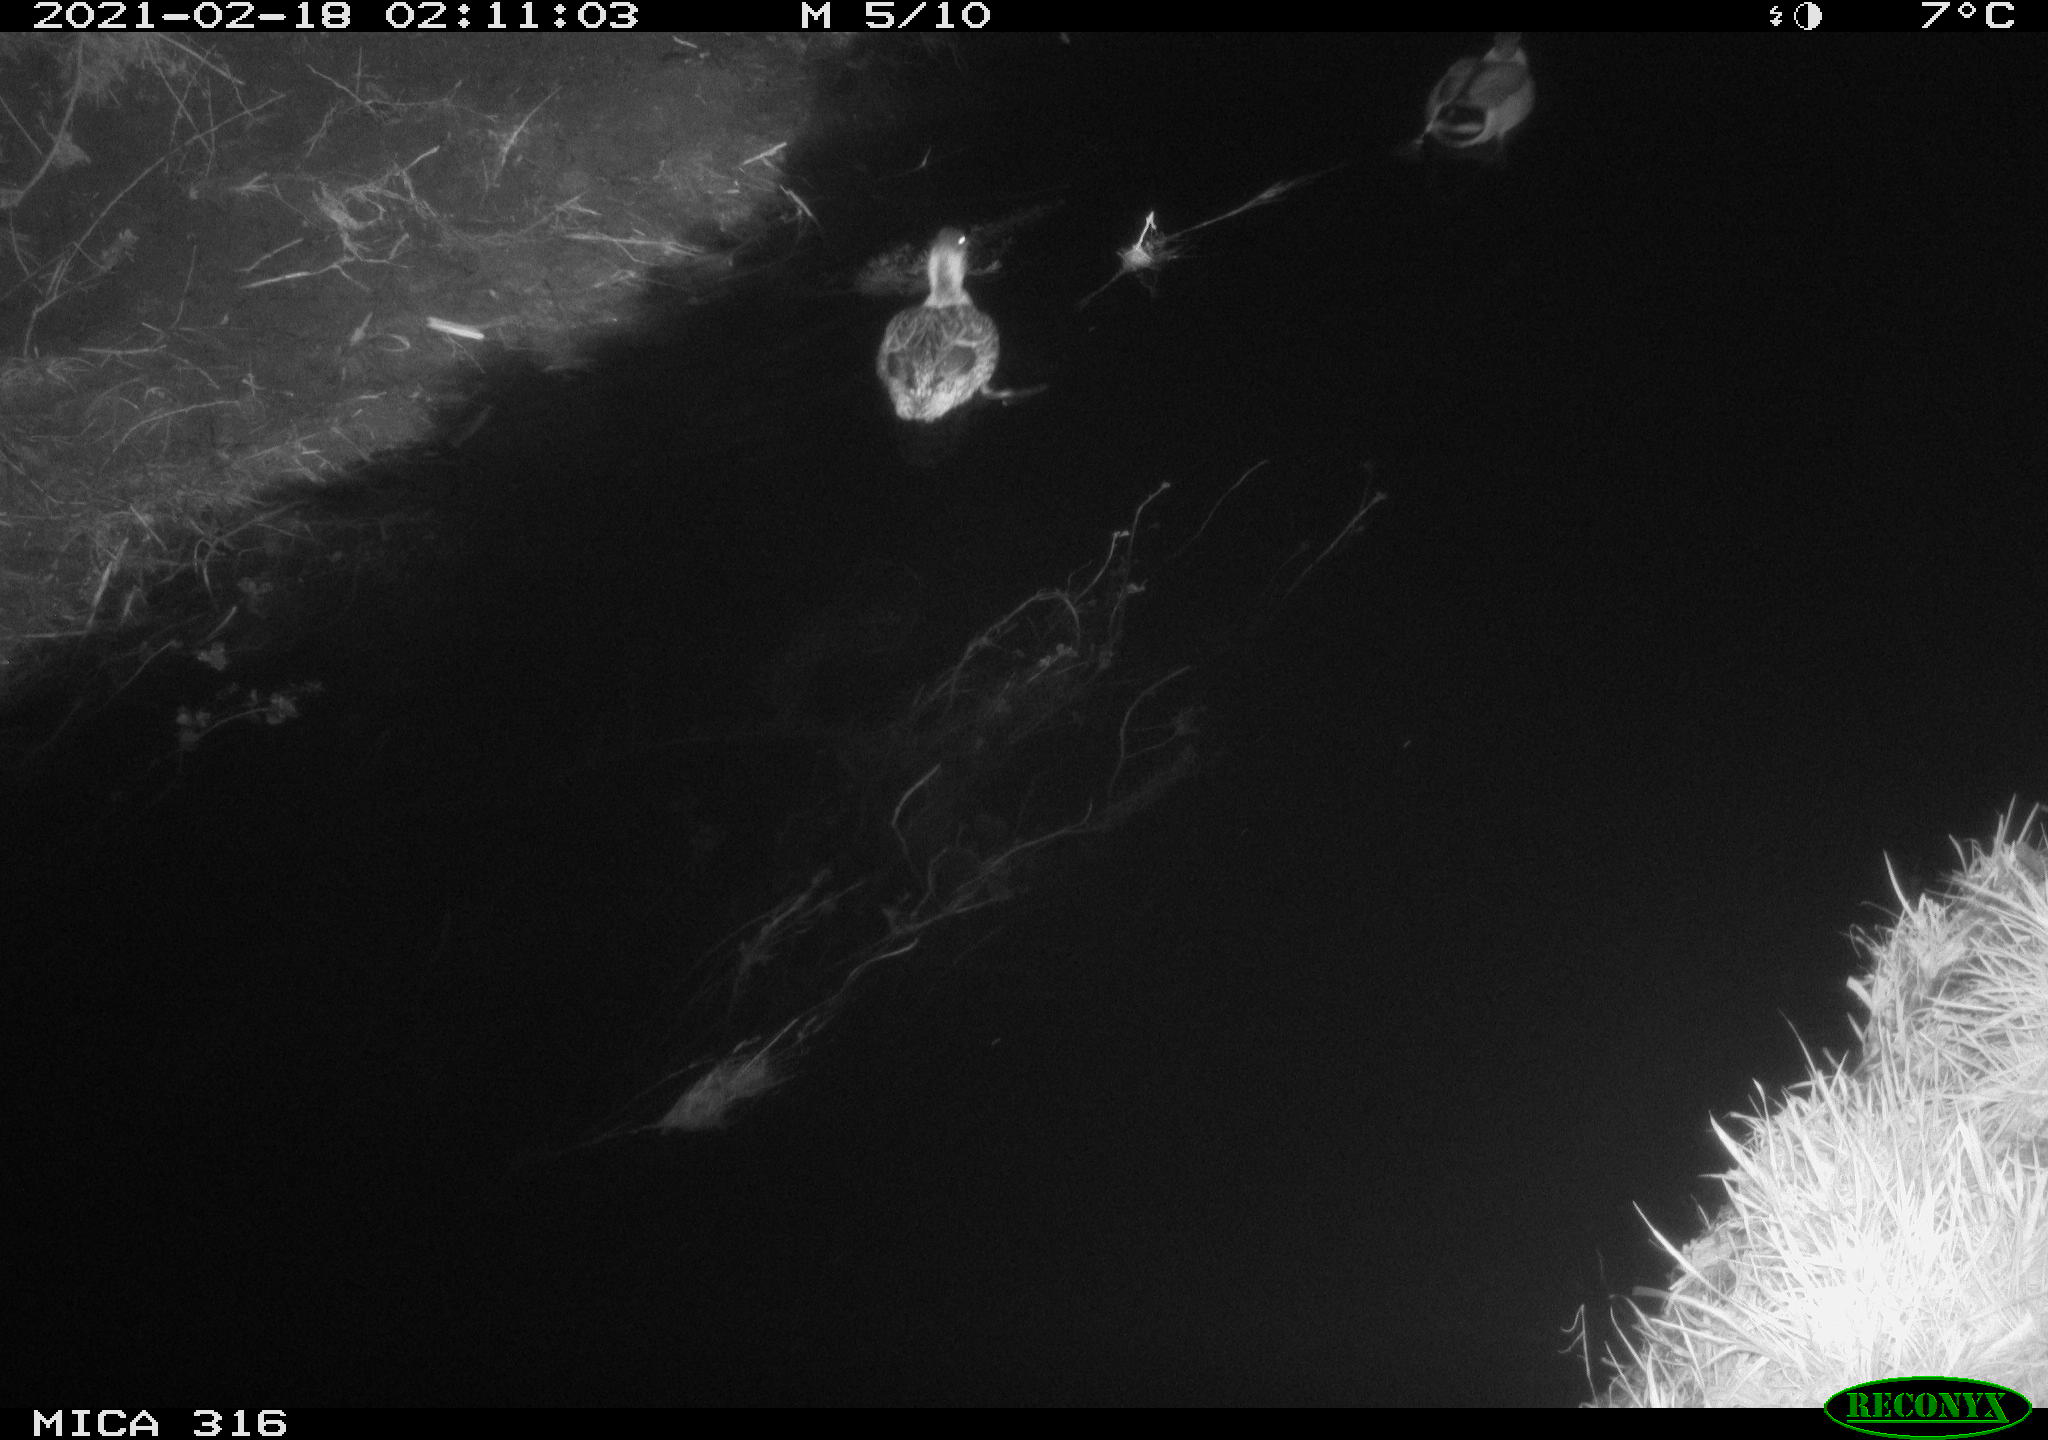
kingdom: Animalia
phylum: Chordata
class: Aves
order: Anseriformes
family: Anatidae
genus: Anas
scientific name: Anas platyrhynchos
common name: Mallard
